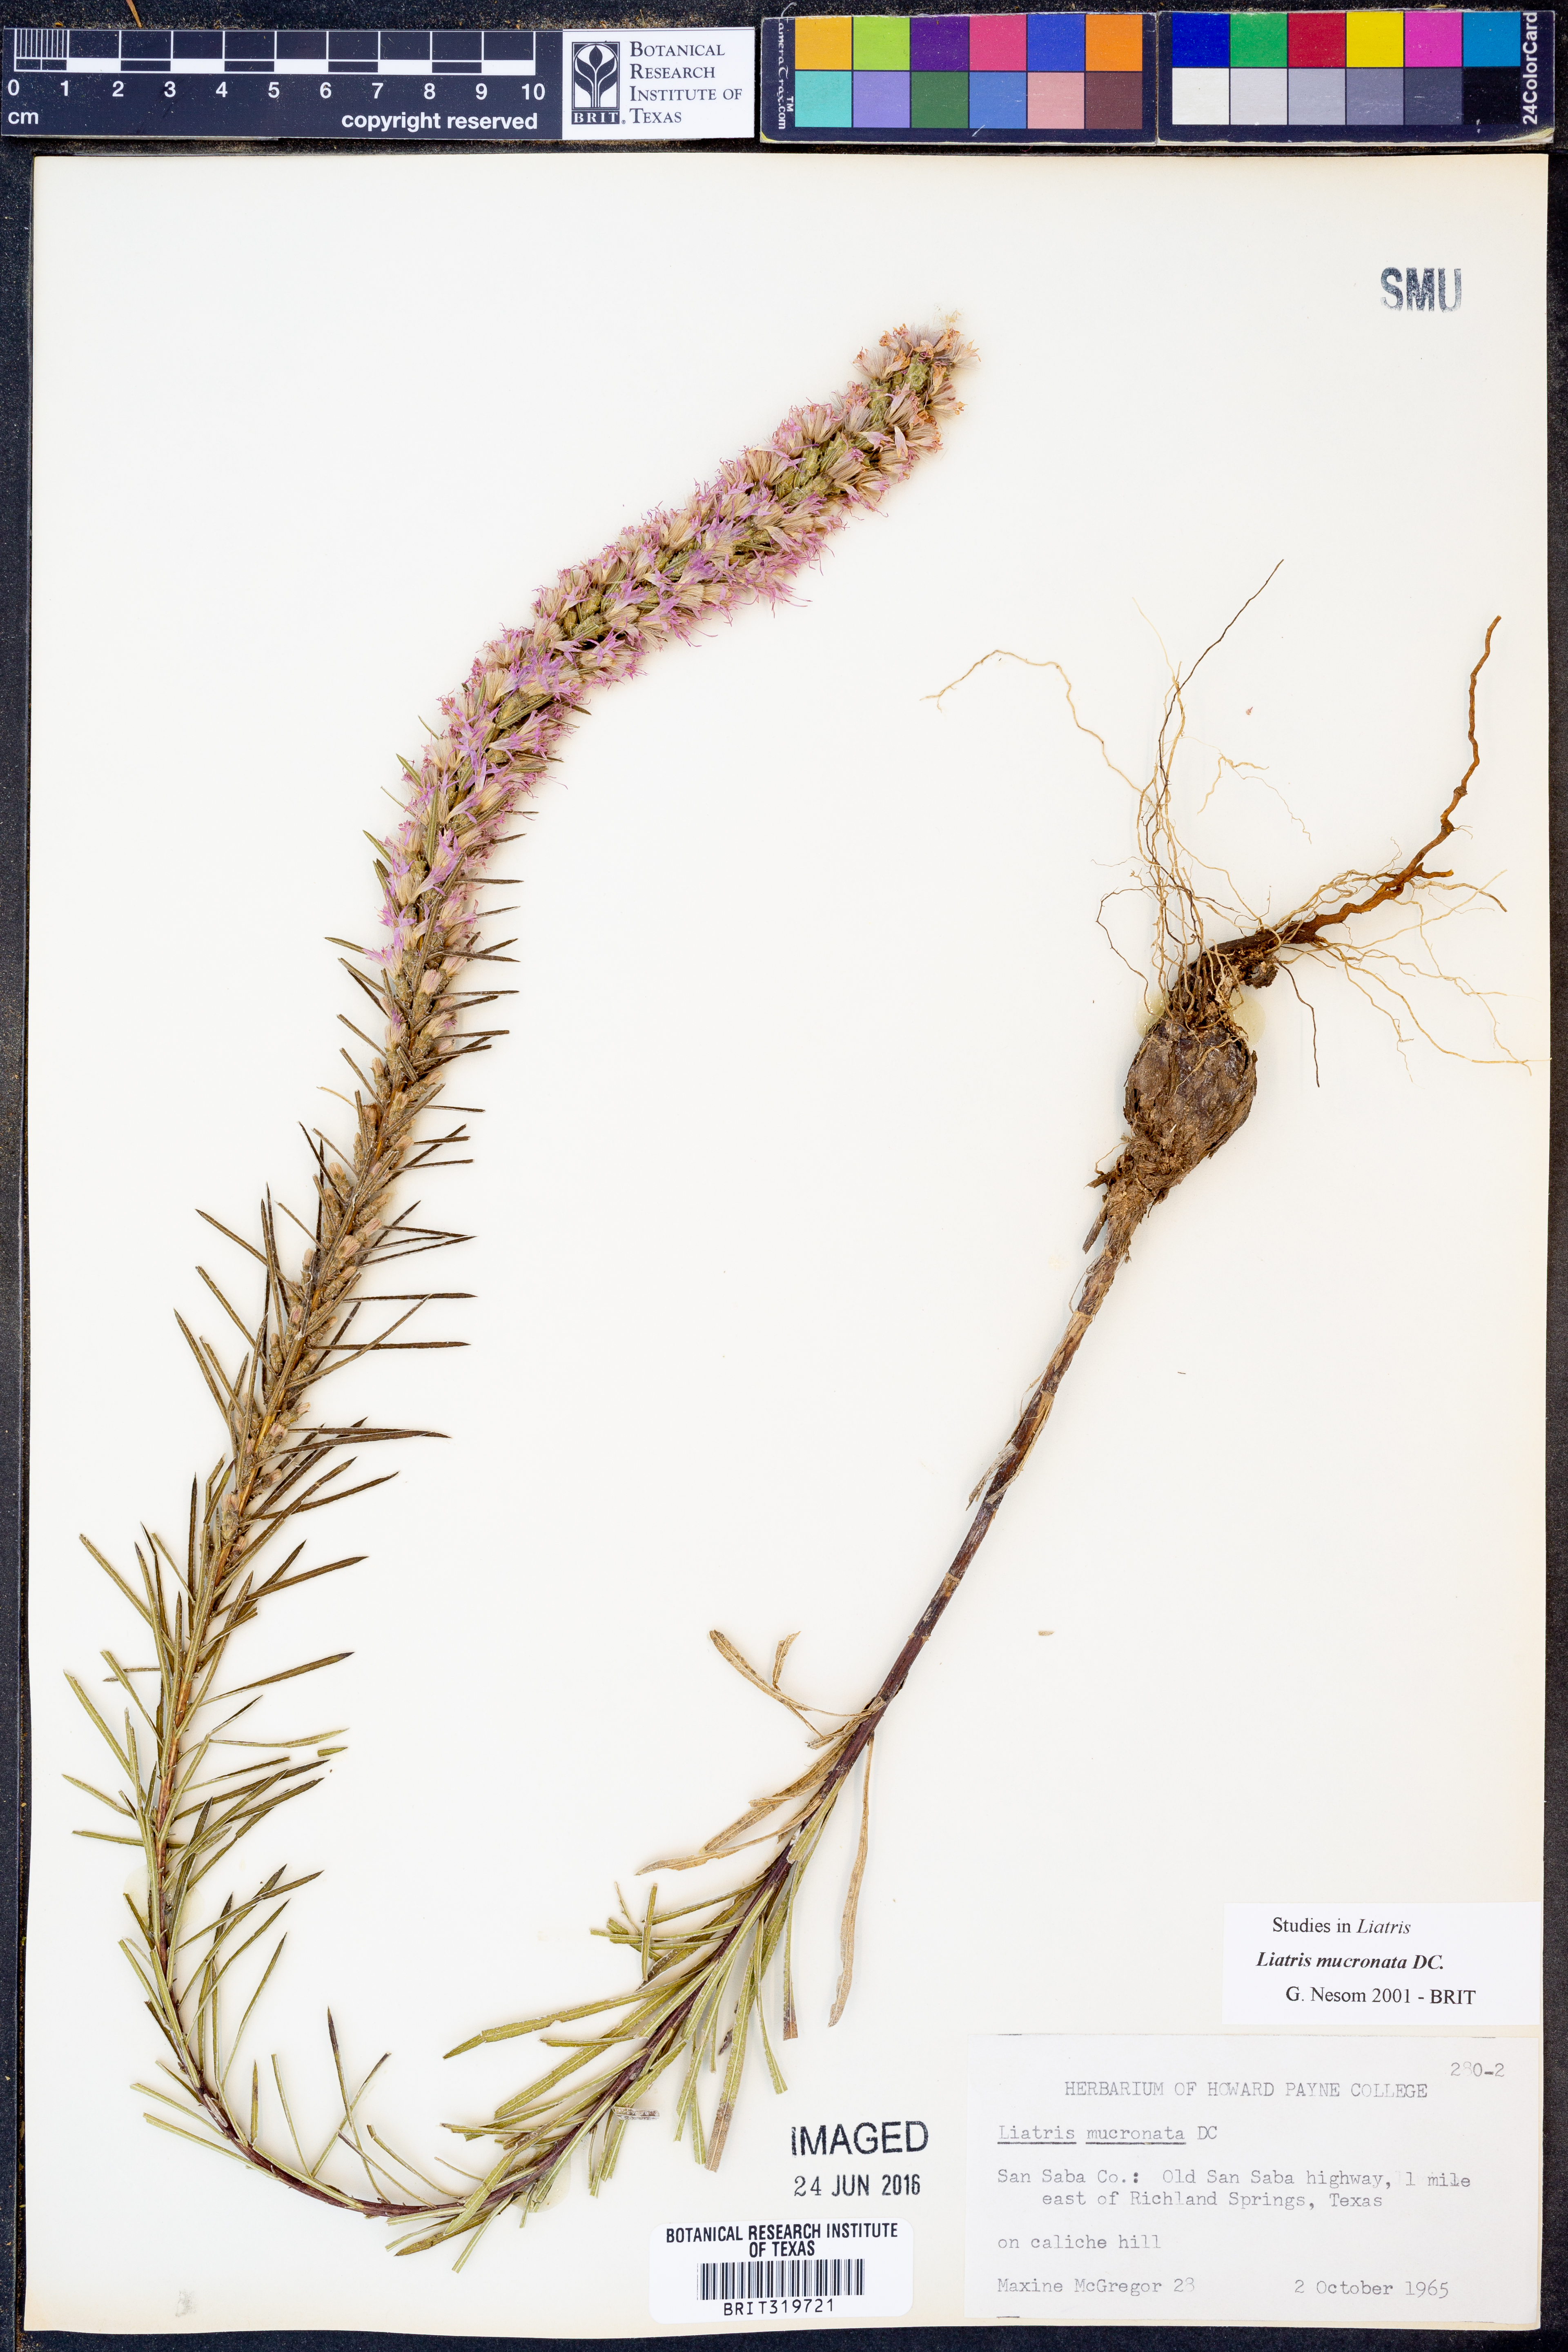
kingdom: Plantae
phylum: Tracheophyta
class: Magnoliopsida
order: Asterales
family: Asteraceae
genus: Liatris
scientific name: Liatris mucronata
